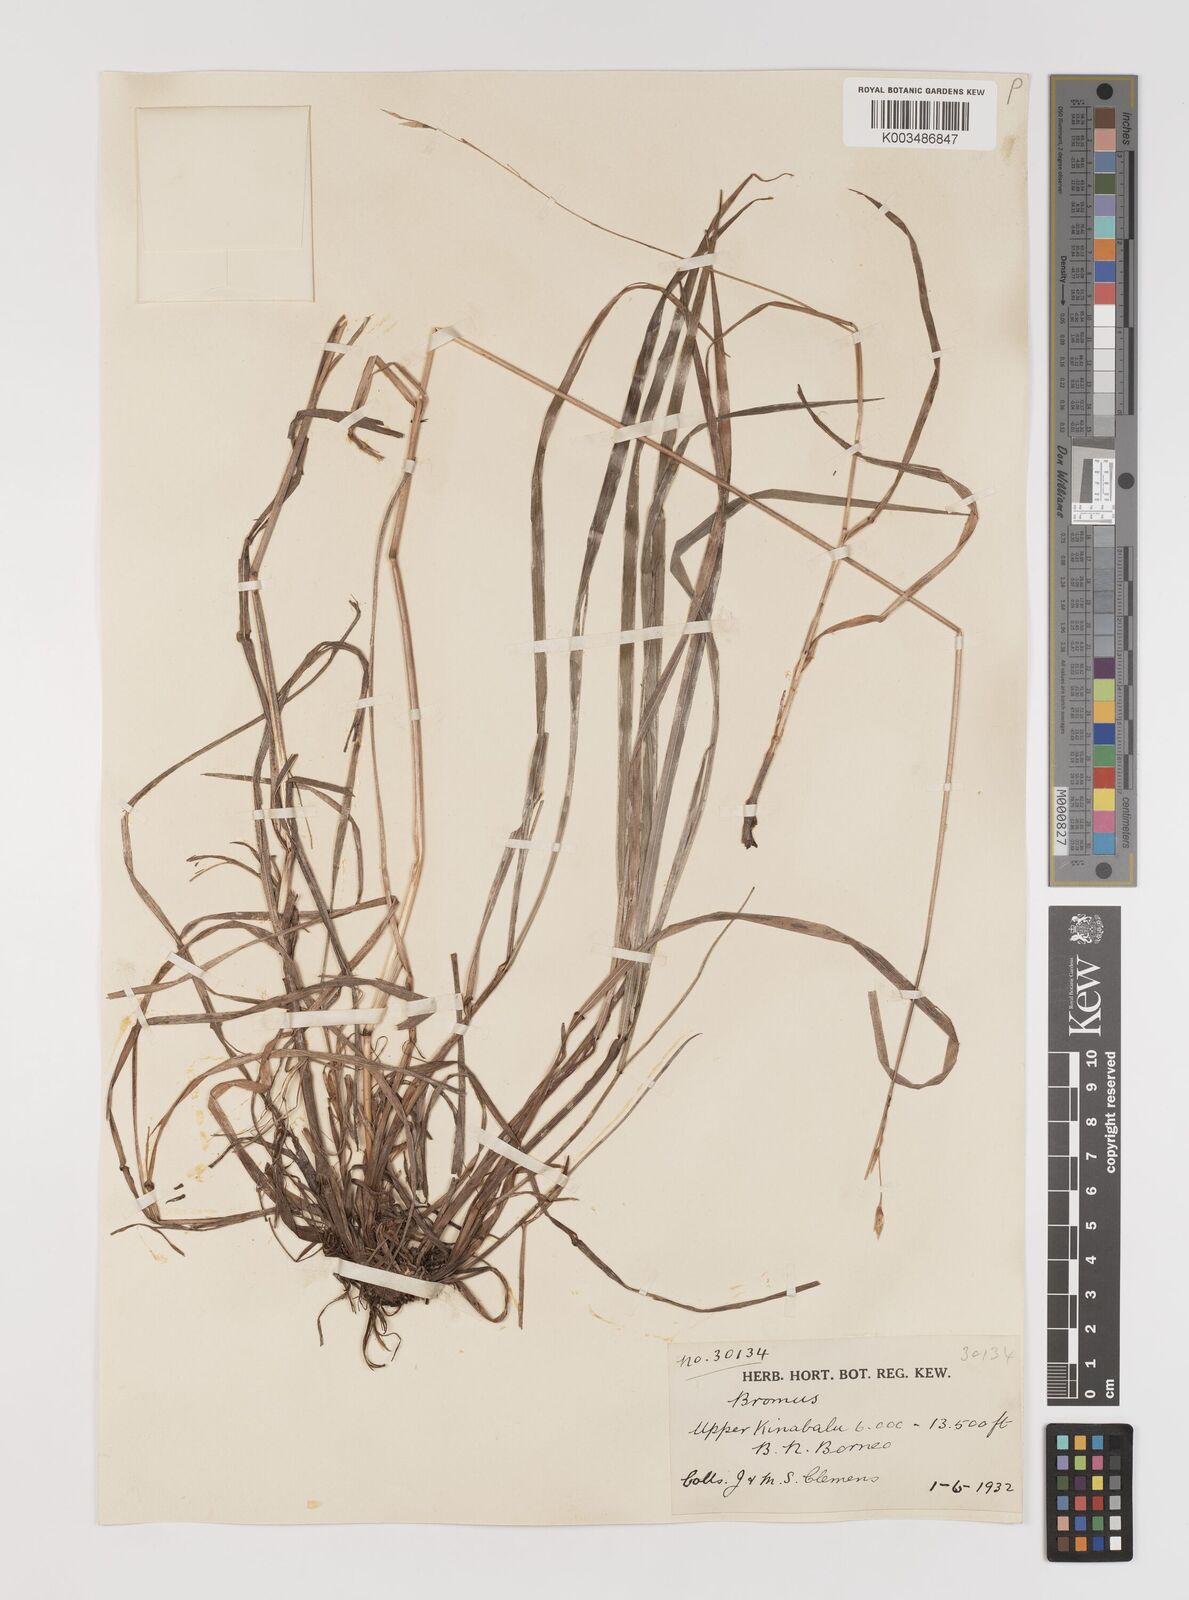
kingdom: Plantae
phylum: Tracheophyta
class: Liliopsida
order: Poales
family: Poaceae
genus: Bromus
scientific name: Bromus formosanus
